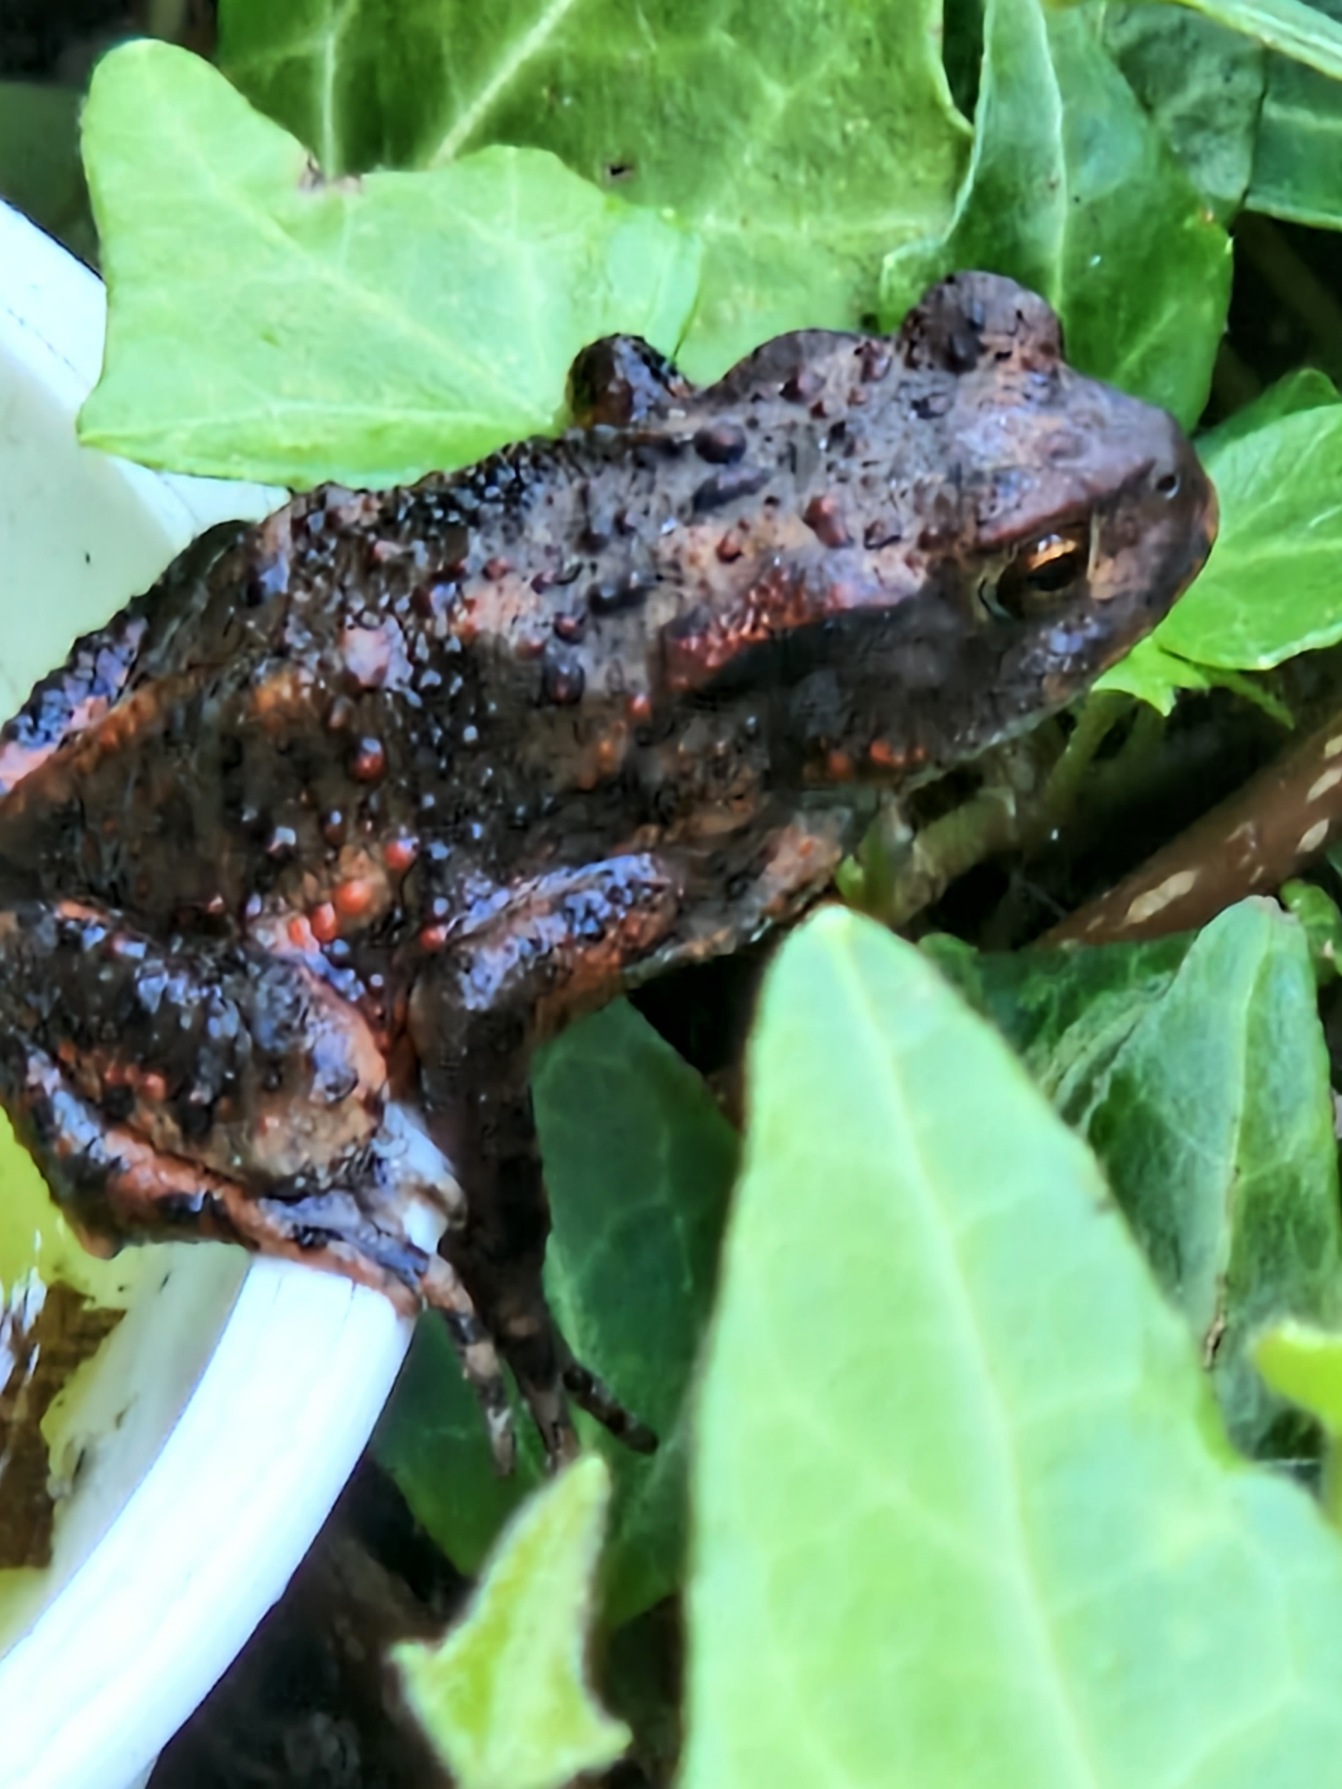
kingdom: Animalia
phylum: Chordata
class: Amphibia
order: Anura
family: Bufonidae
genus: Bufo
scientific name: Bufo bufo
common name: Skrubtudse
